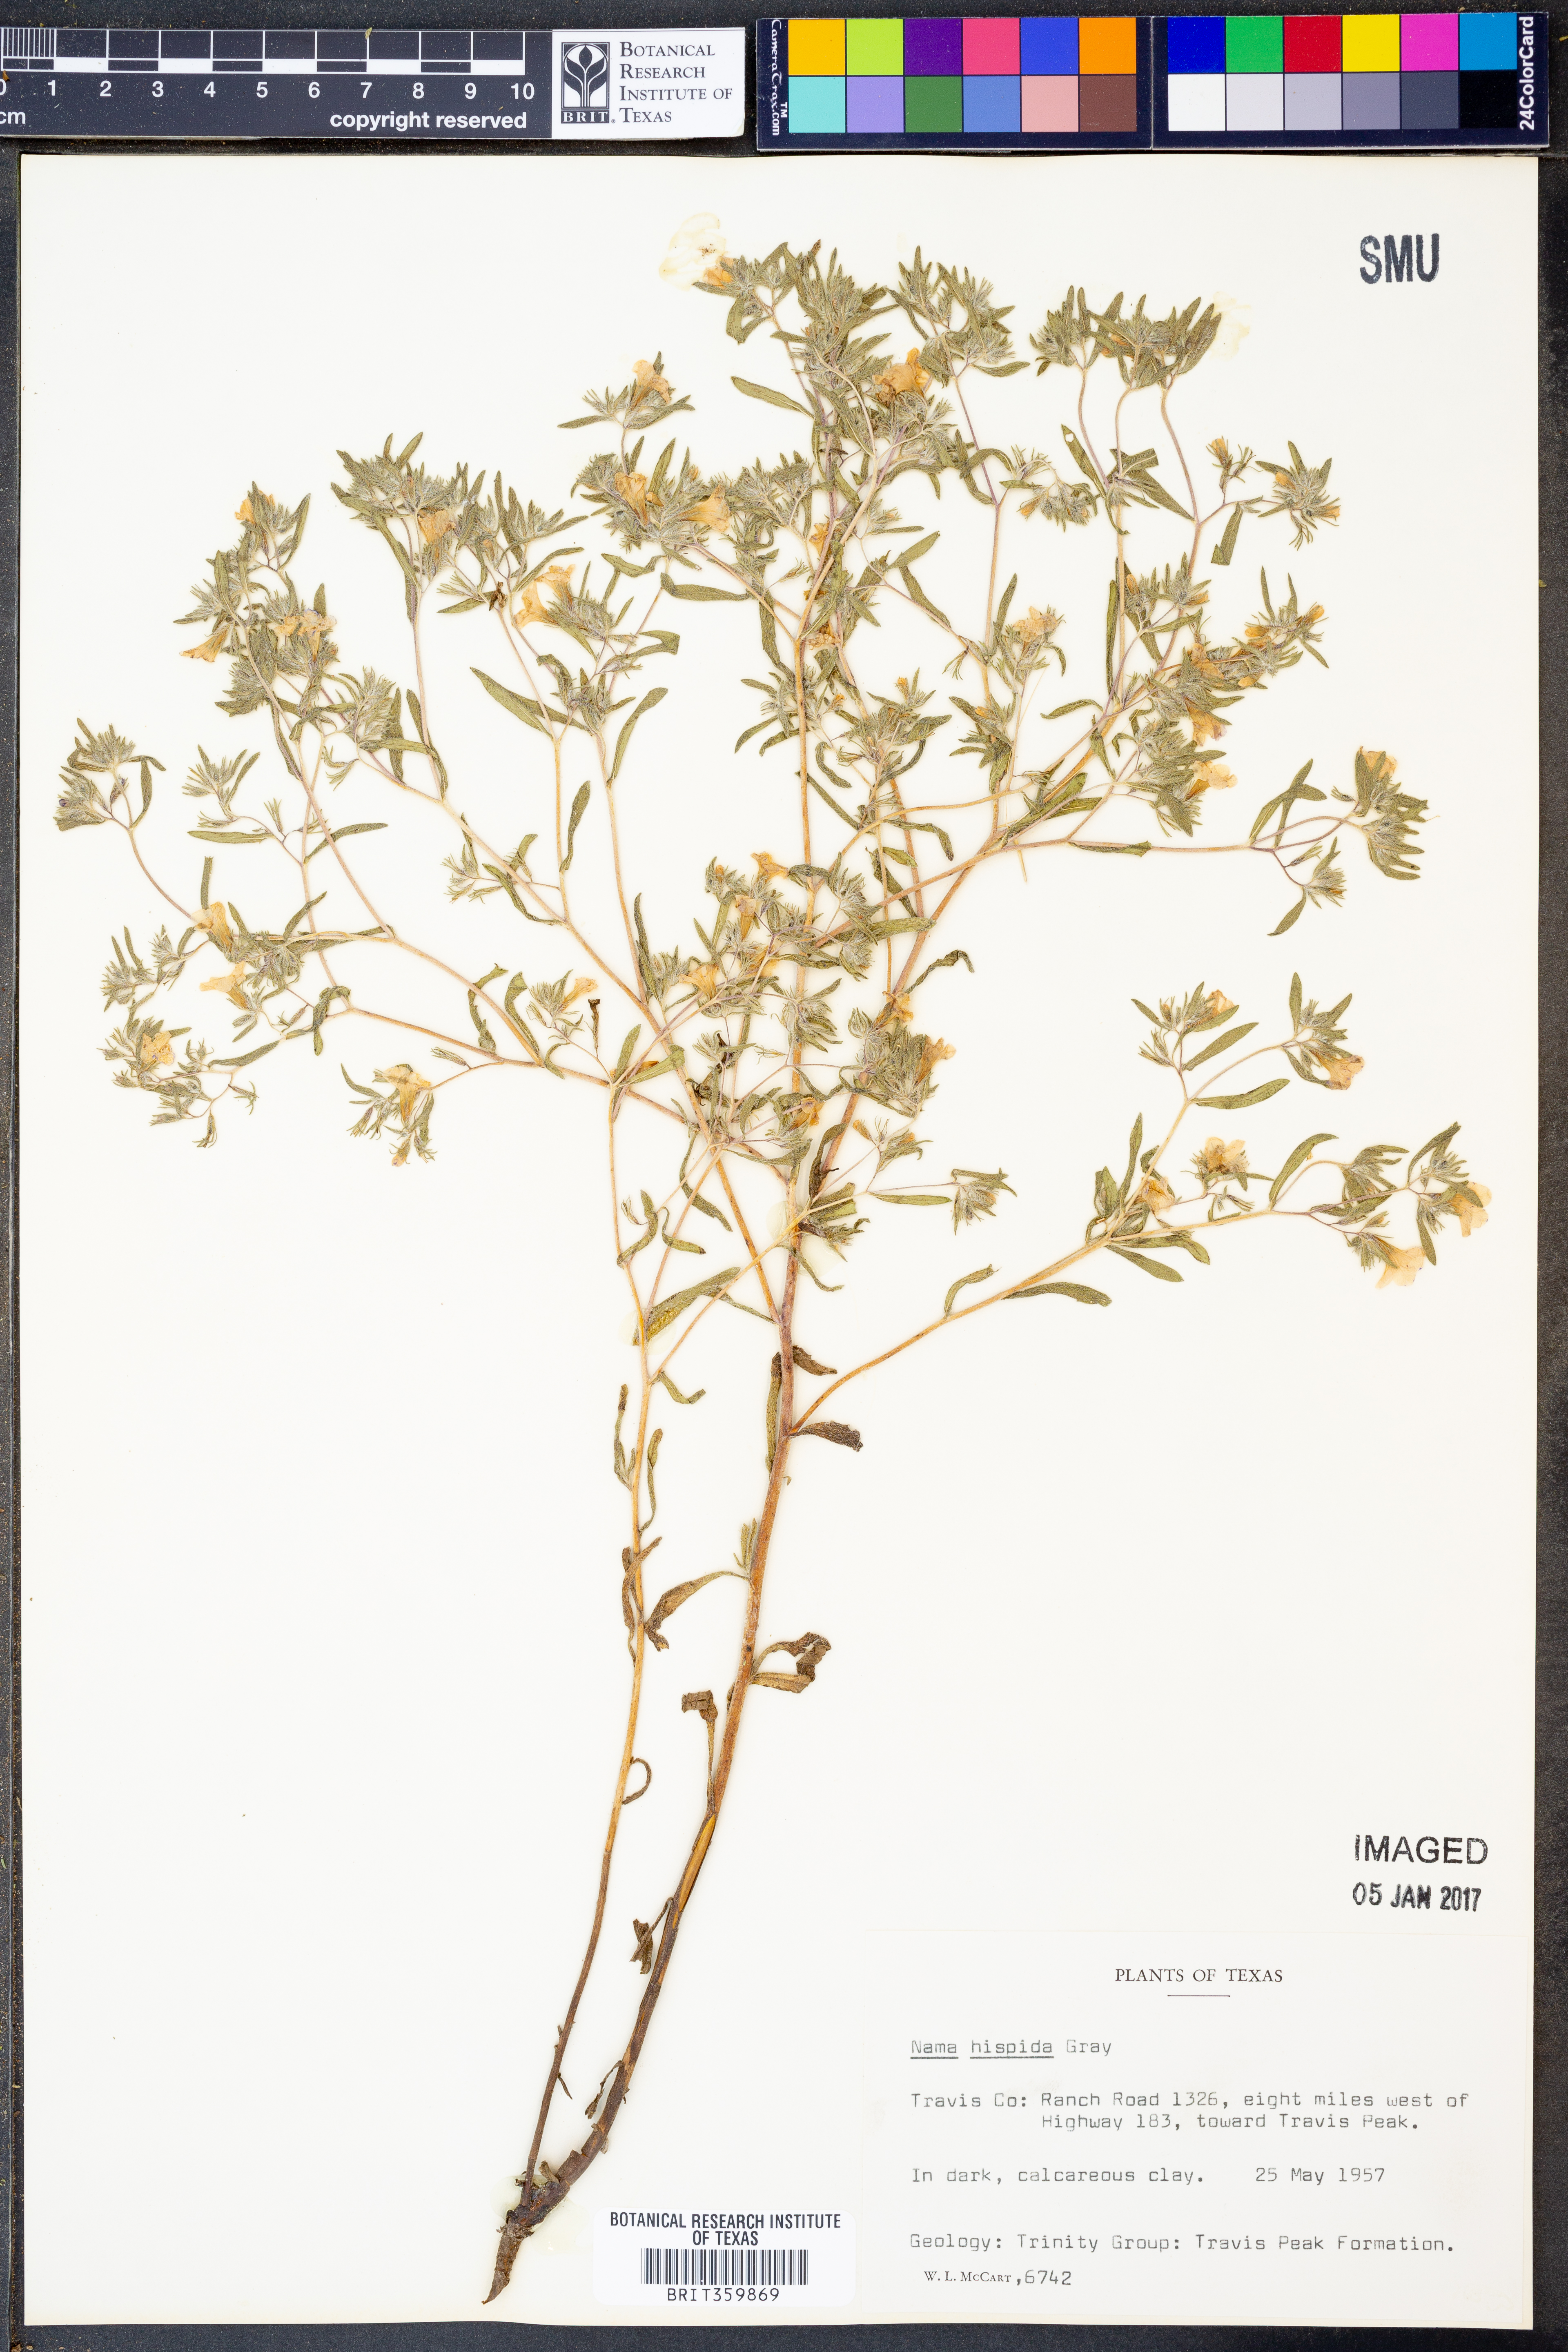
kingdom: Plantae
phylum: Tracheophyta
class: Magnoliopsida
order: Boraginales
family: Namaceae
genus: Nama
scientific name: Nama hispida
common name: Bristly nama
